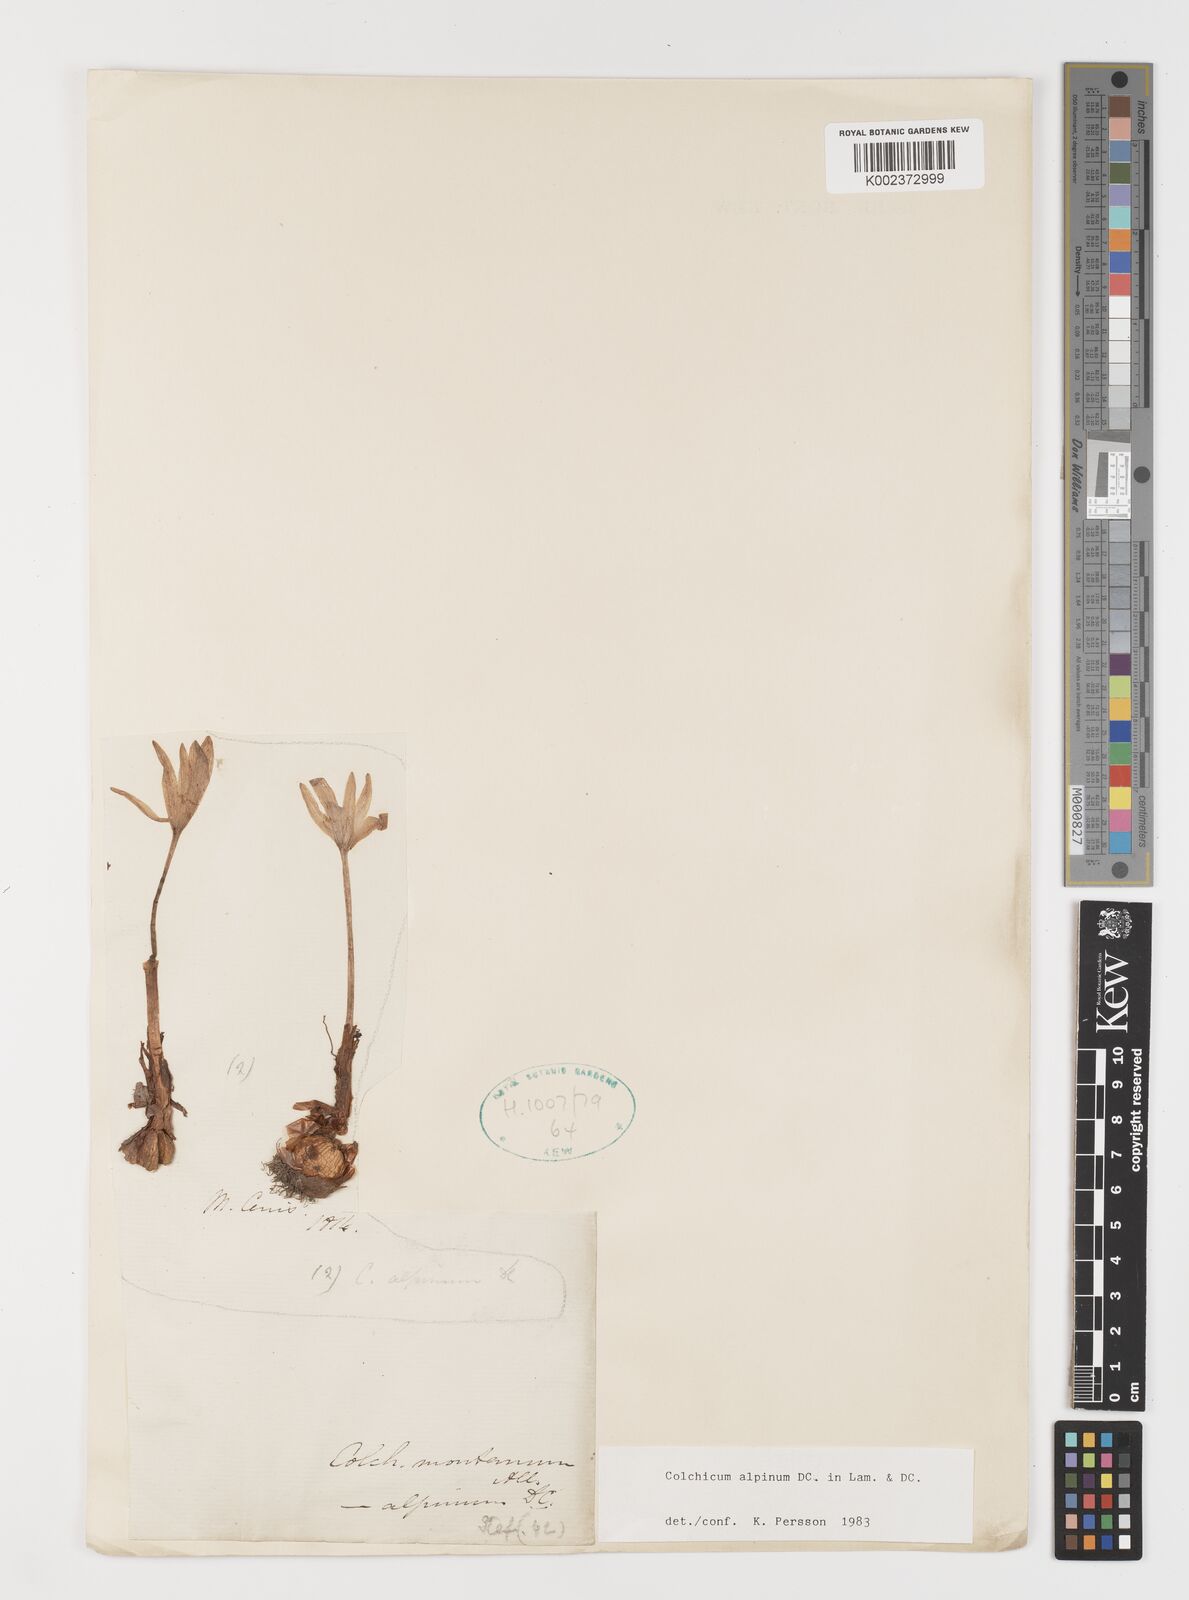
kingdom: Plantae
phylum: Tracheophyta
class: Liliopsida
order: Liliales
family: Colchicaceae
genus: Colchicum
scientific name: Colchicum alpinum
